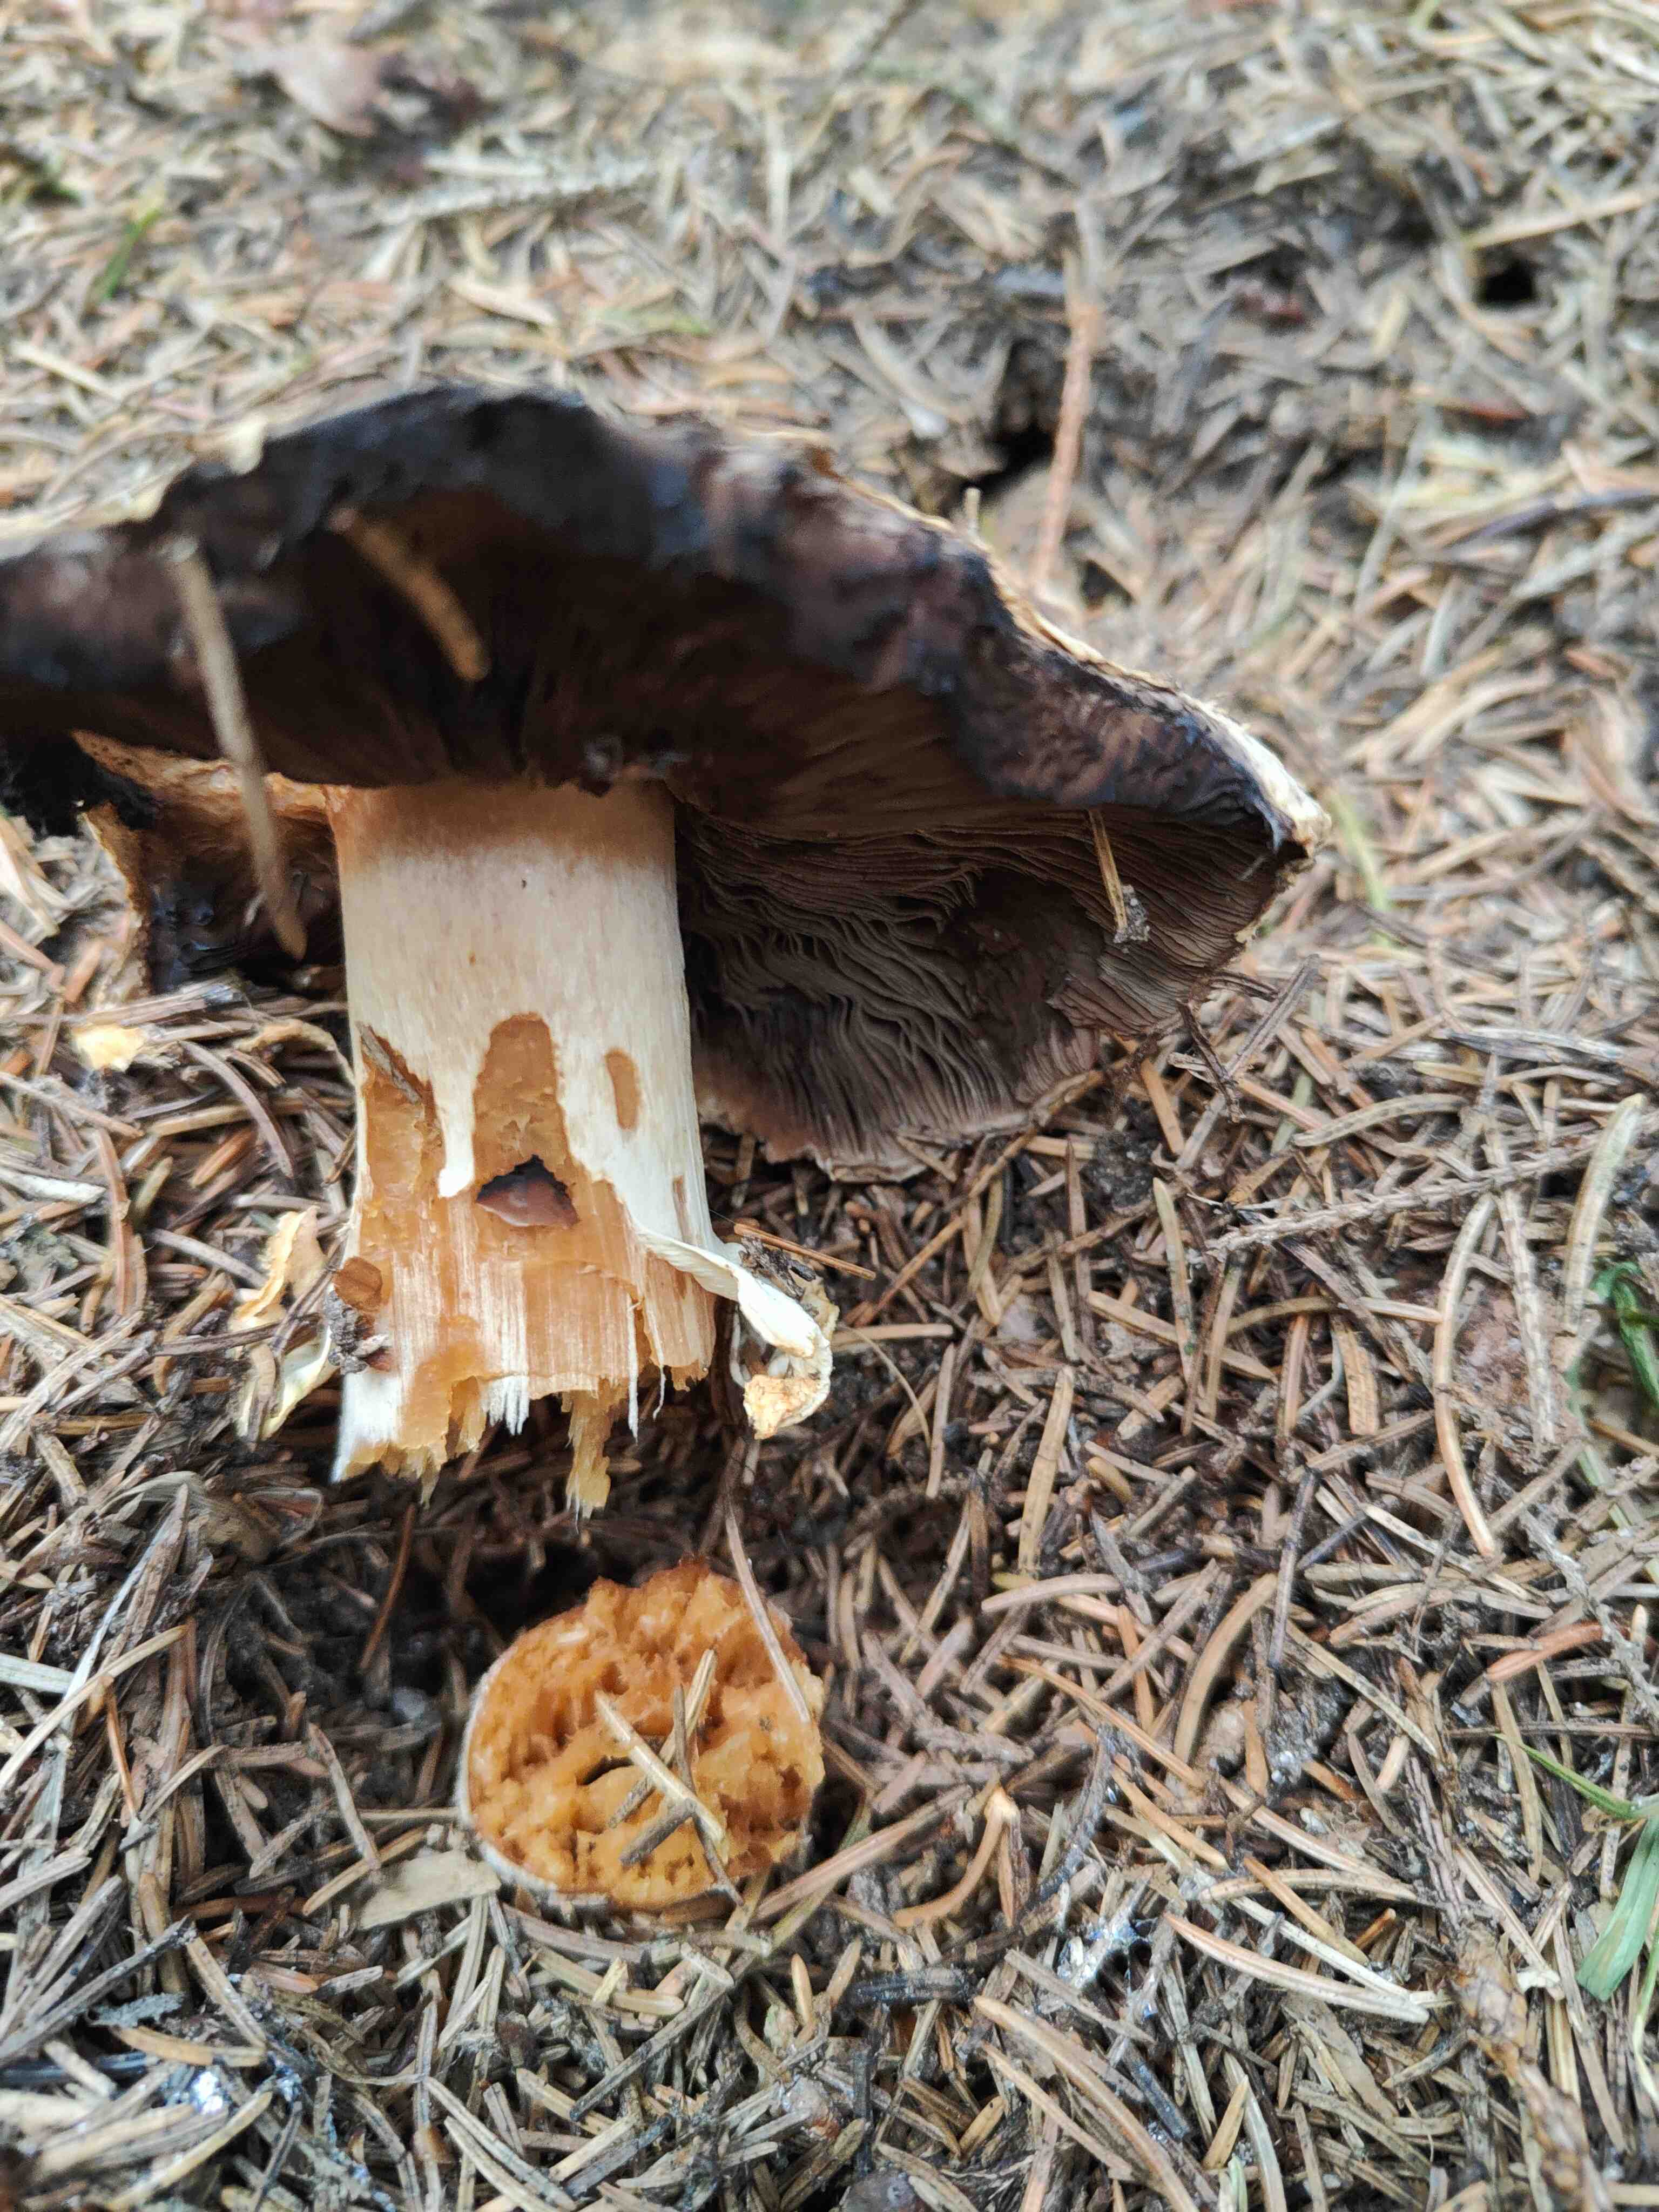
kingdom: Fungi
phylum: Basidiomycota
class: Agaricomycetes
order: Agaricales
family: Agaricaceae
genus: Agaricus
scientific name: Agaricus
